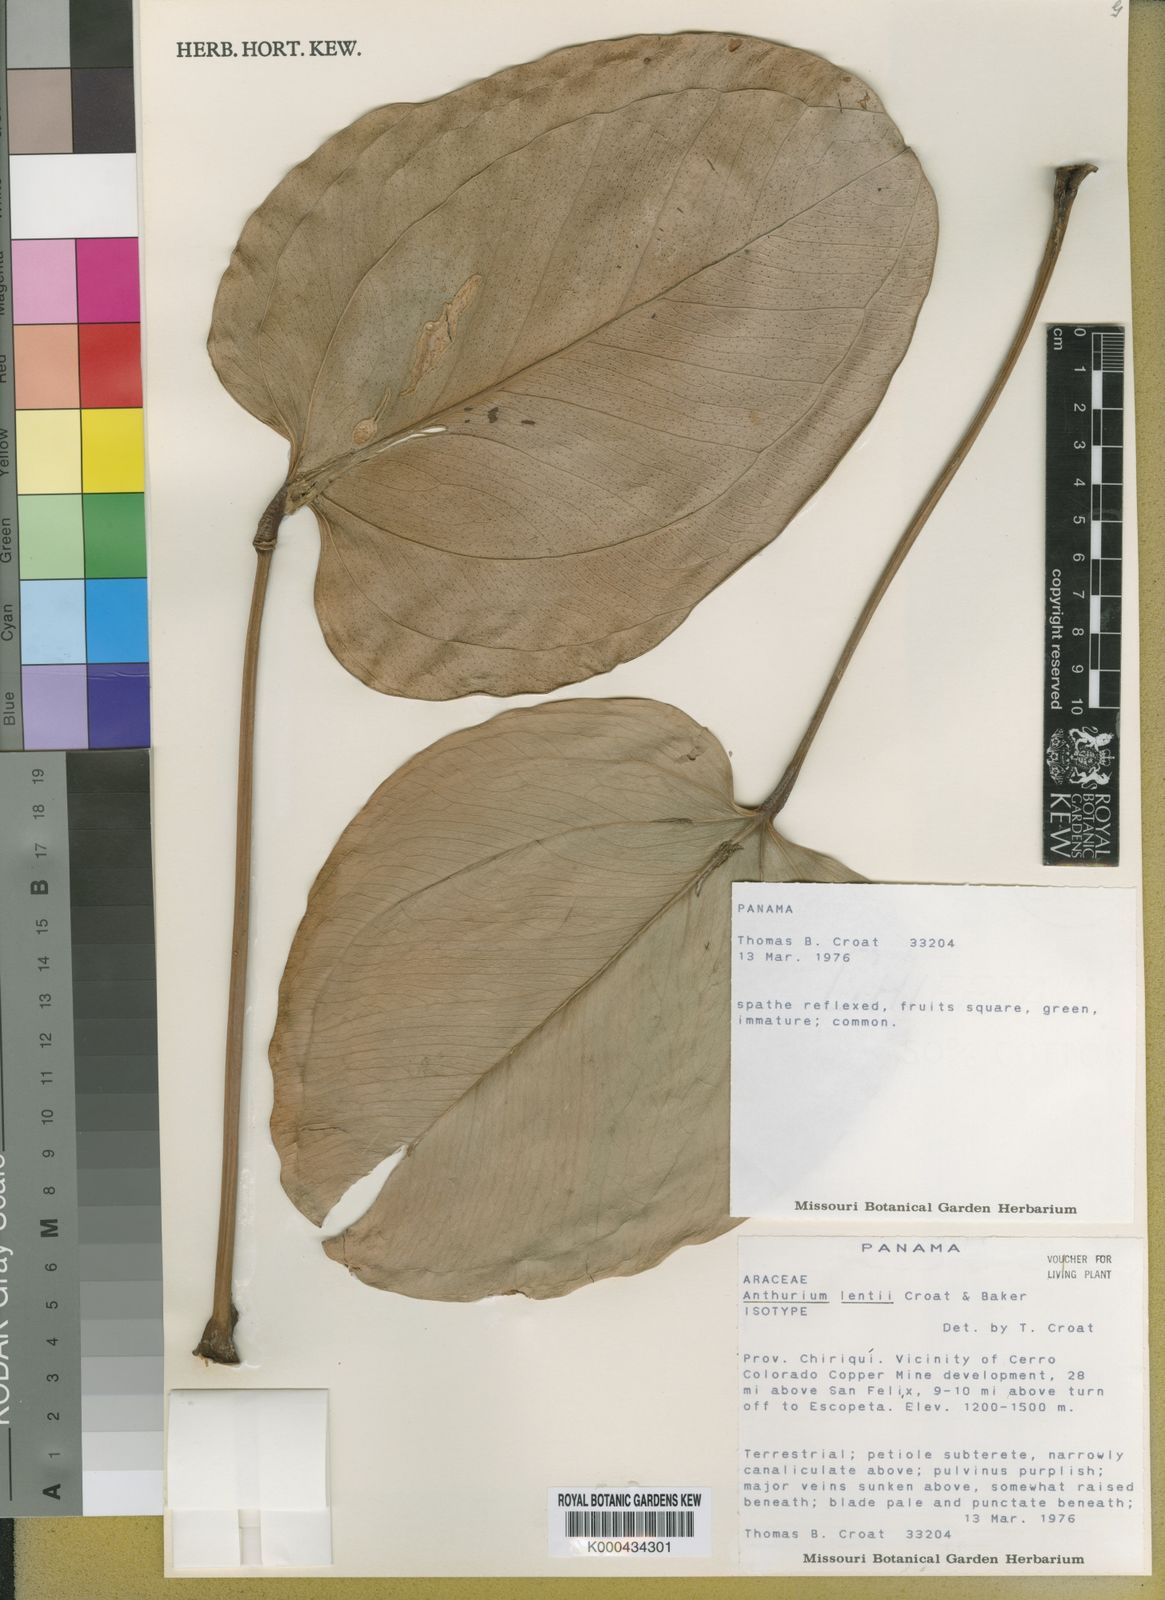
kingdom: Plantae
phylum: Tracheophyta
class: Liliopsida
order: Alismatales
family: Araceae
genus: Anthurium
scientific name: Anthurium lentii
